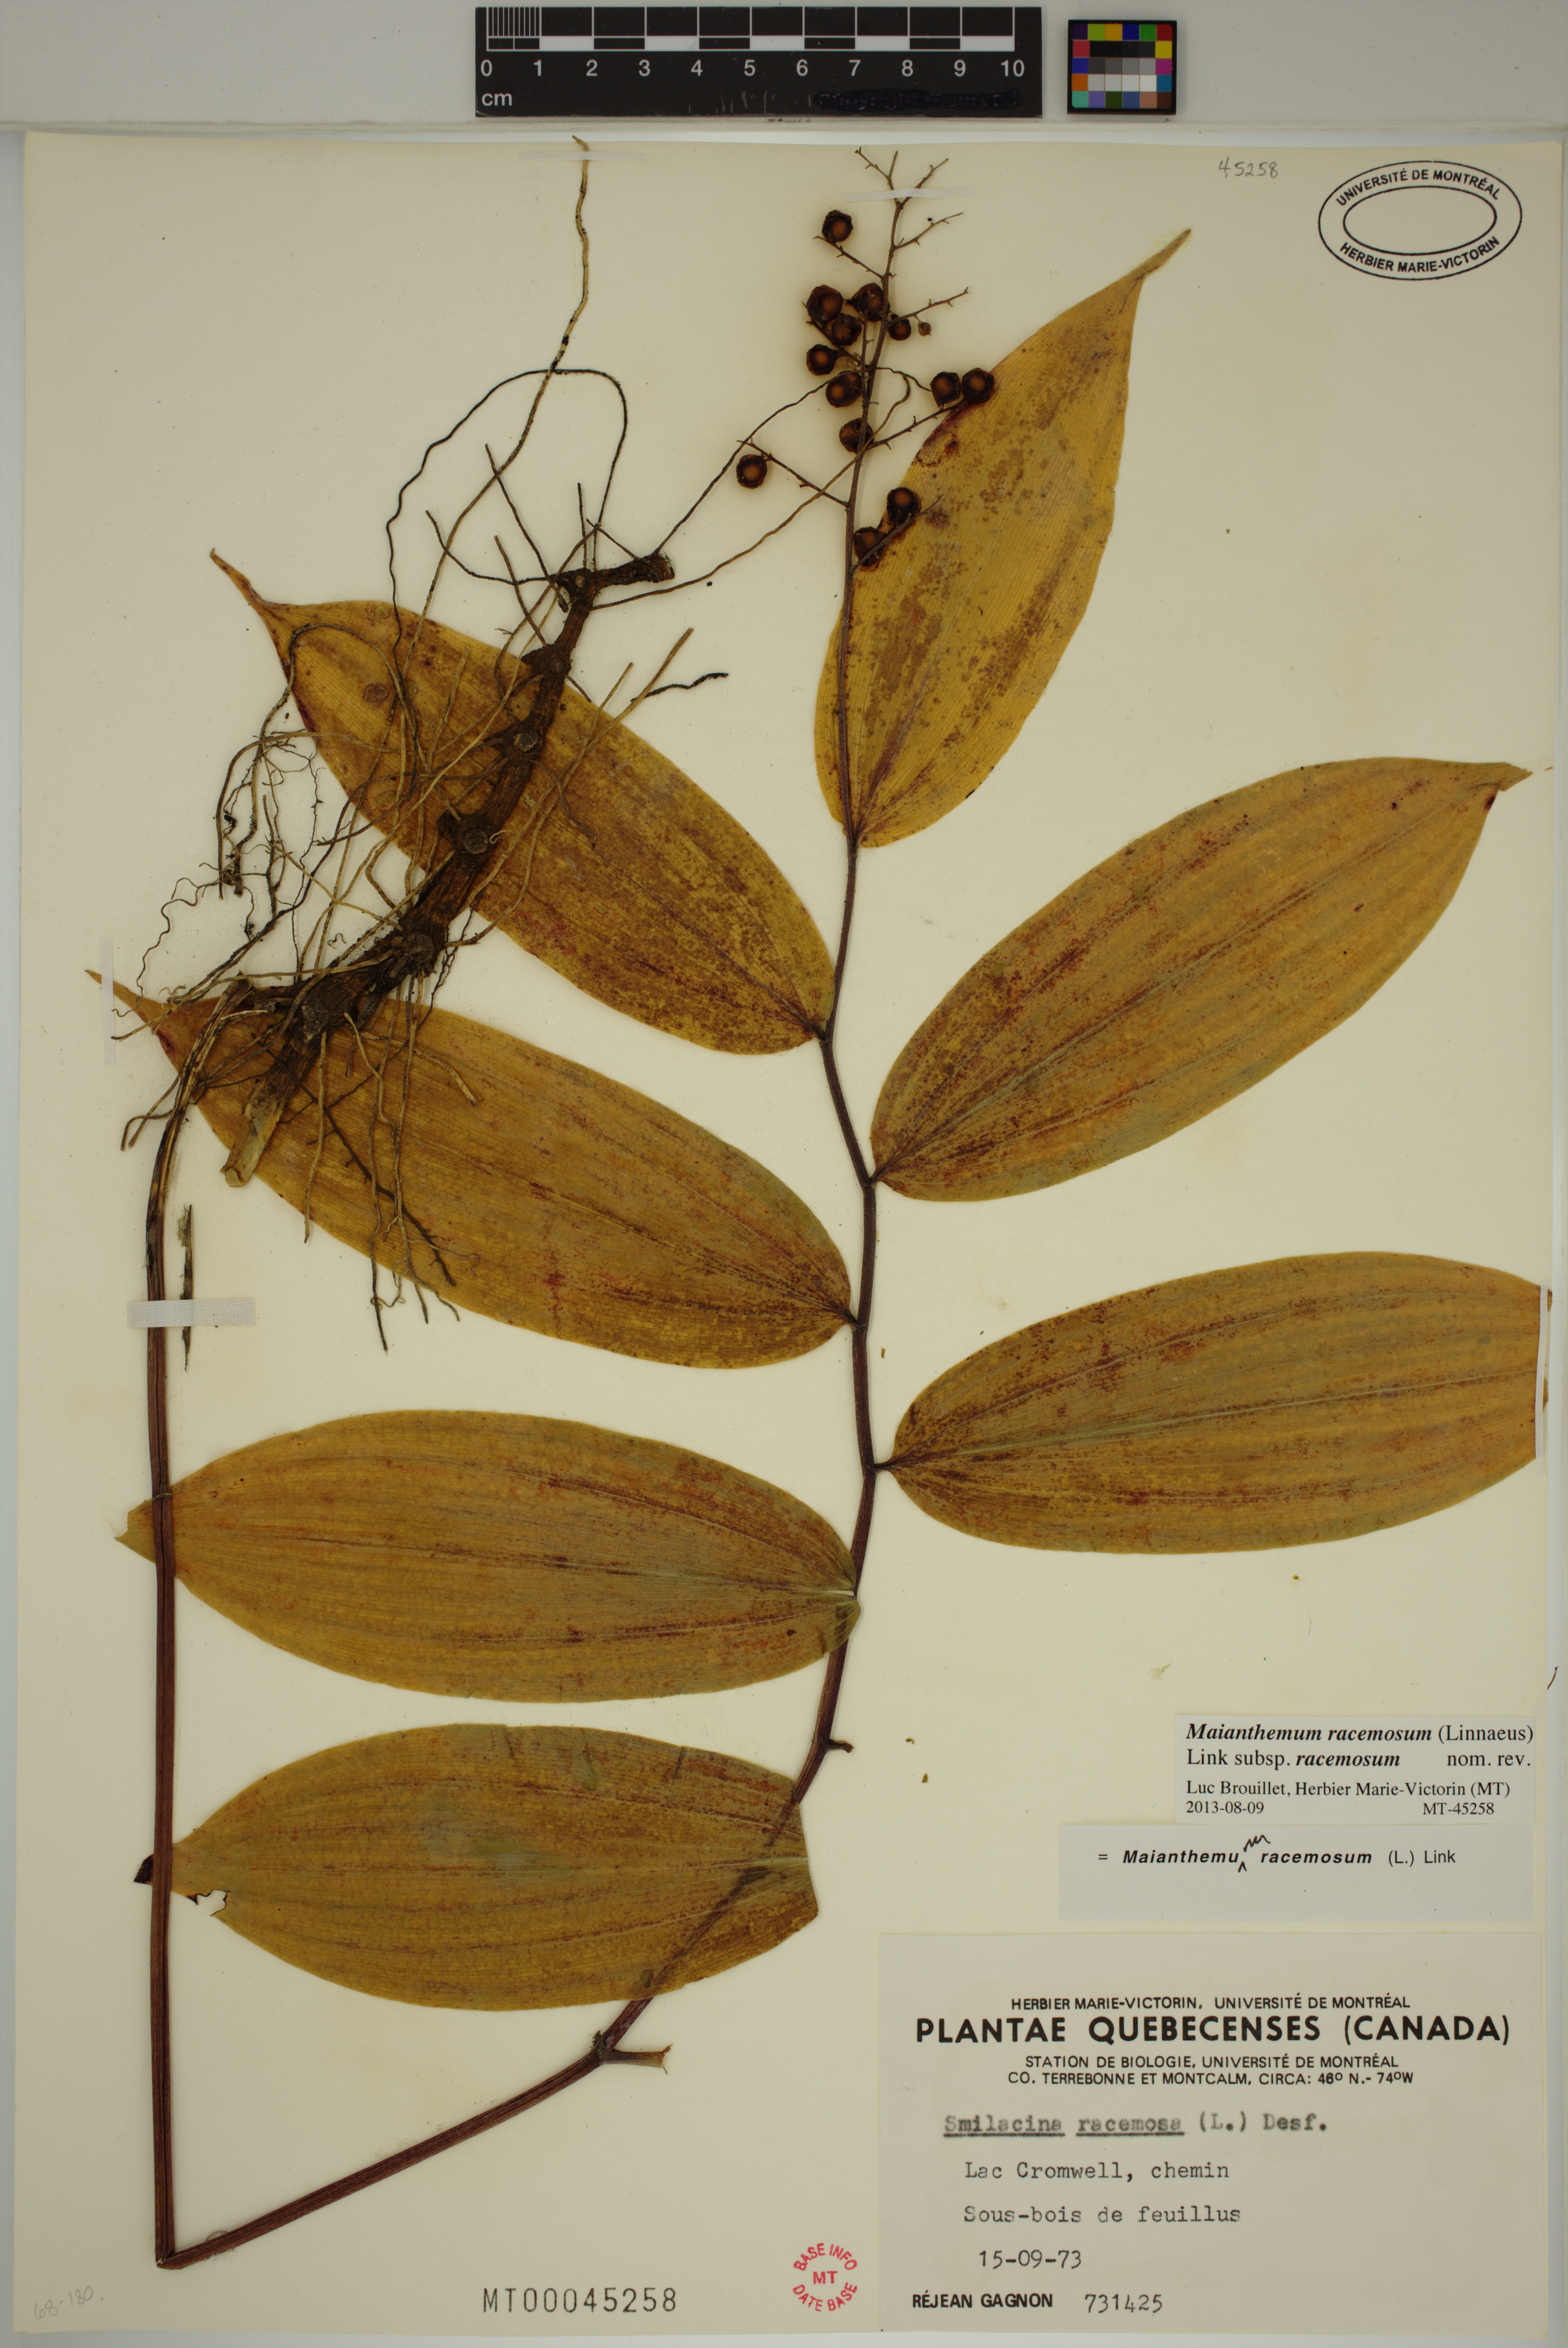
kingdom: Plantae
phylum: Tracheophyta
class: Liliopsida
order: Asparagales
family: Asparagaceae
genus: Maianthemum
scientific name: Maianthemum racemosum
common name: False spikenard
